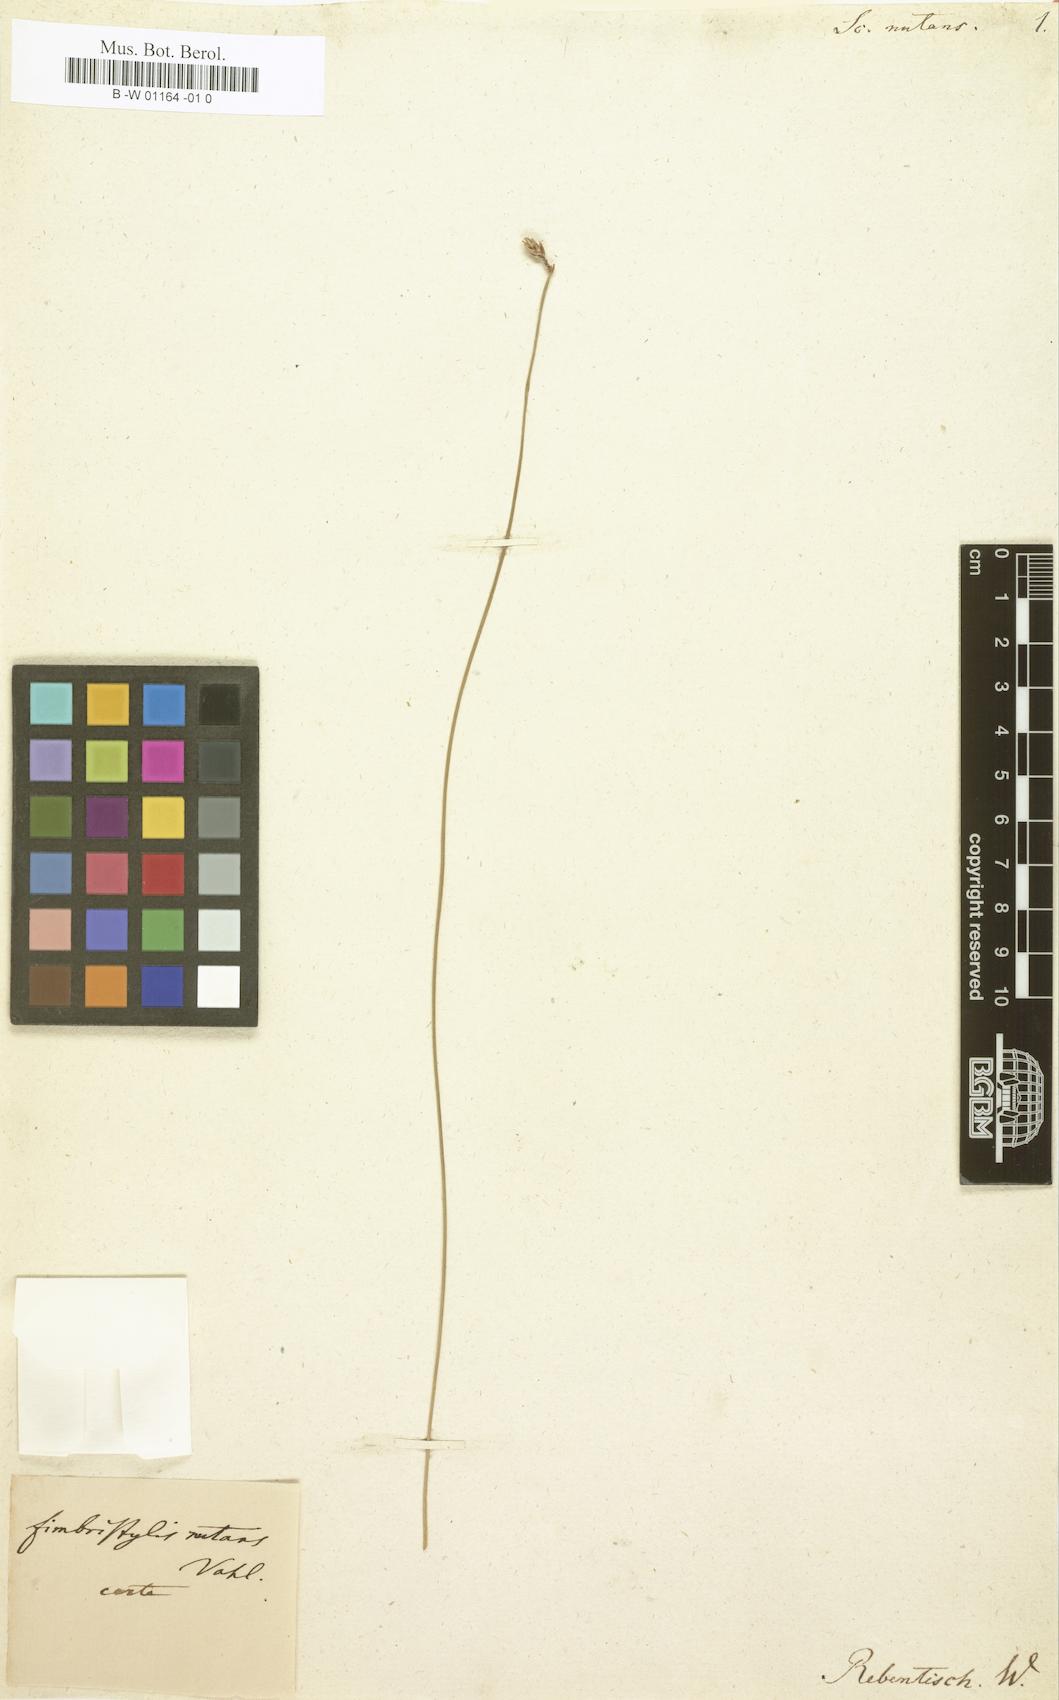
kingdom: Plantae
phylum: Tracheophyta
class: Liliopsida
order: Poales
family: Cyperaceae
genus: Fimbristylis
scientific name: Fimbristylis nutans
